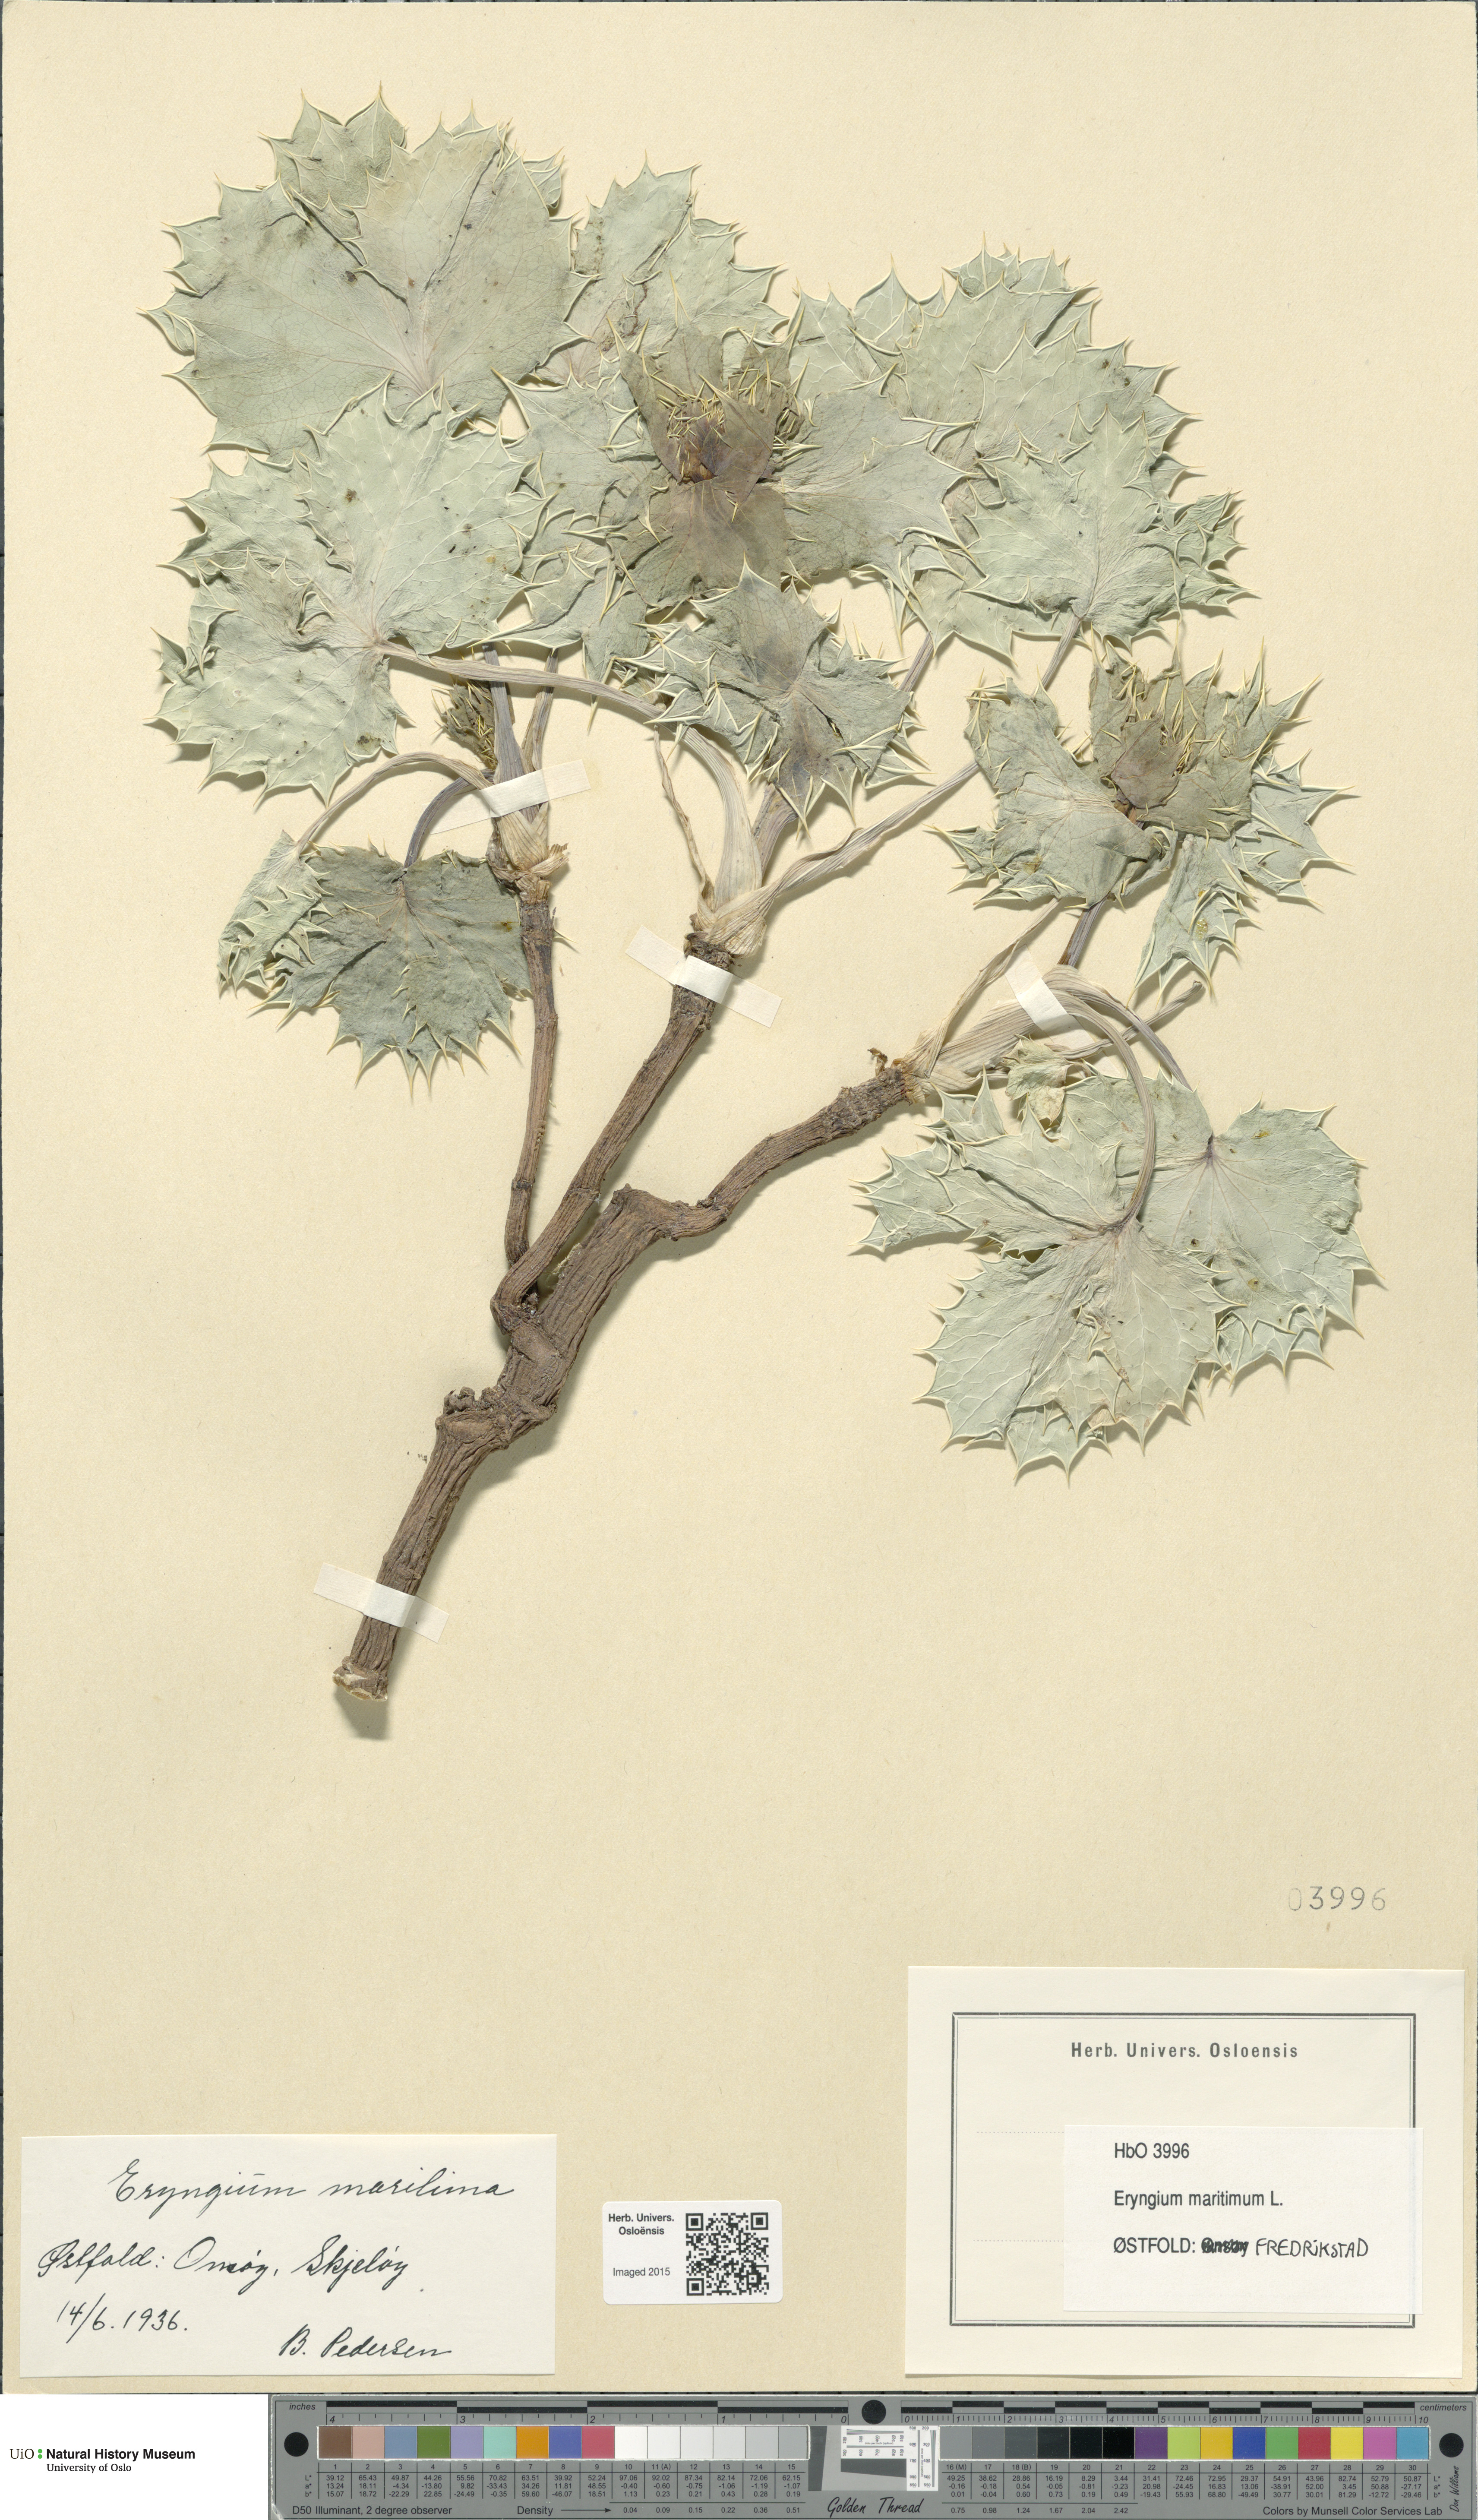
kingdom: Plantae
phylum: Tracheophyta
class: Magnoliopsida
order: Apiales
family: Apiaceae
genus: Eryngium
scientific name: Eryngium maritimum
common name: Sea-holly
